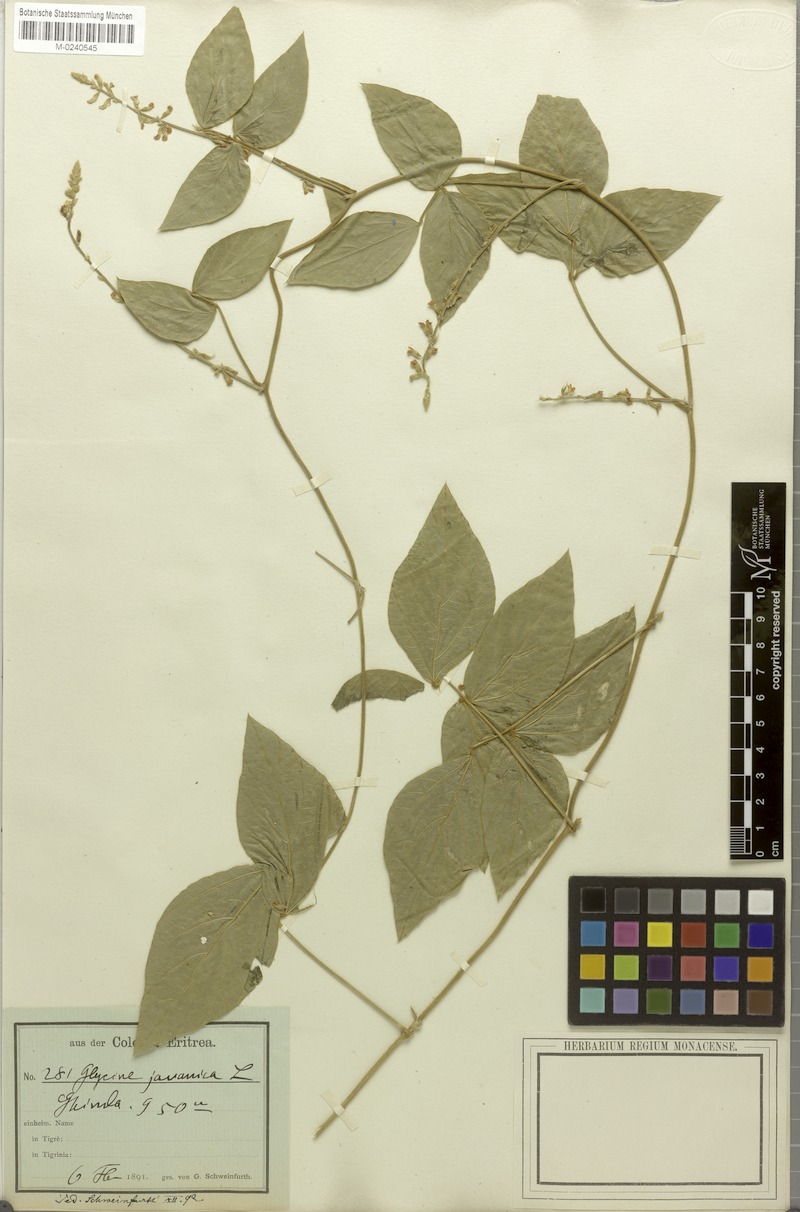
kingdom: Plantae
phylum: Tracheophyta
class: Magnoliopsida
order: Fabales
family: Fabaceae
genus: Pueraria
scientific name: Pueraria montana
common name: Kudzu
